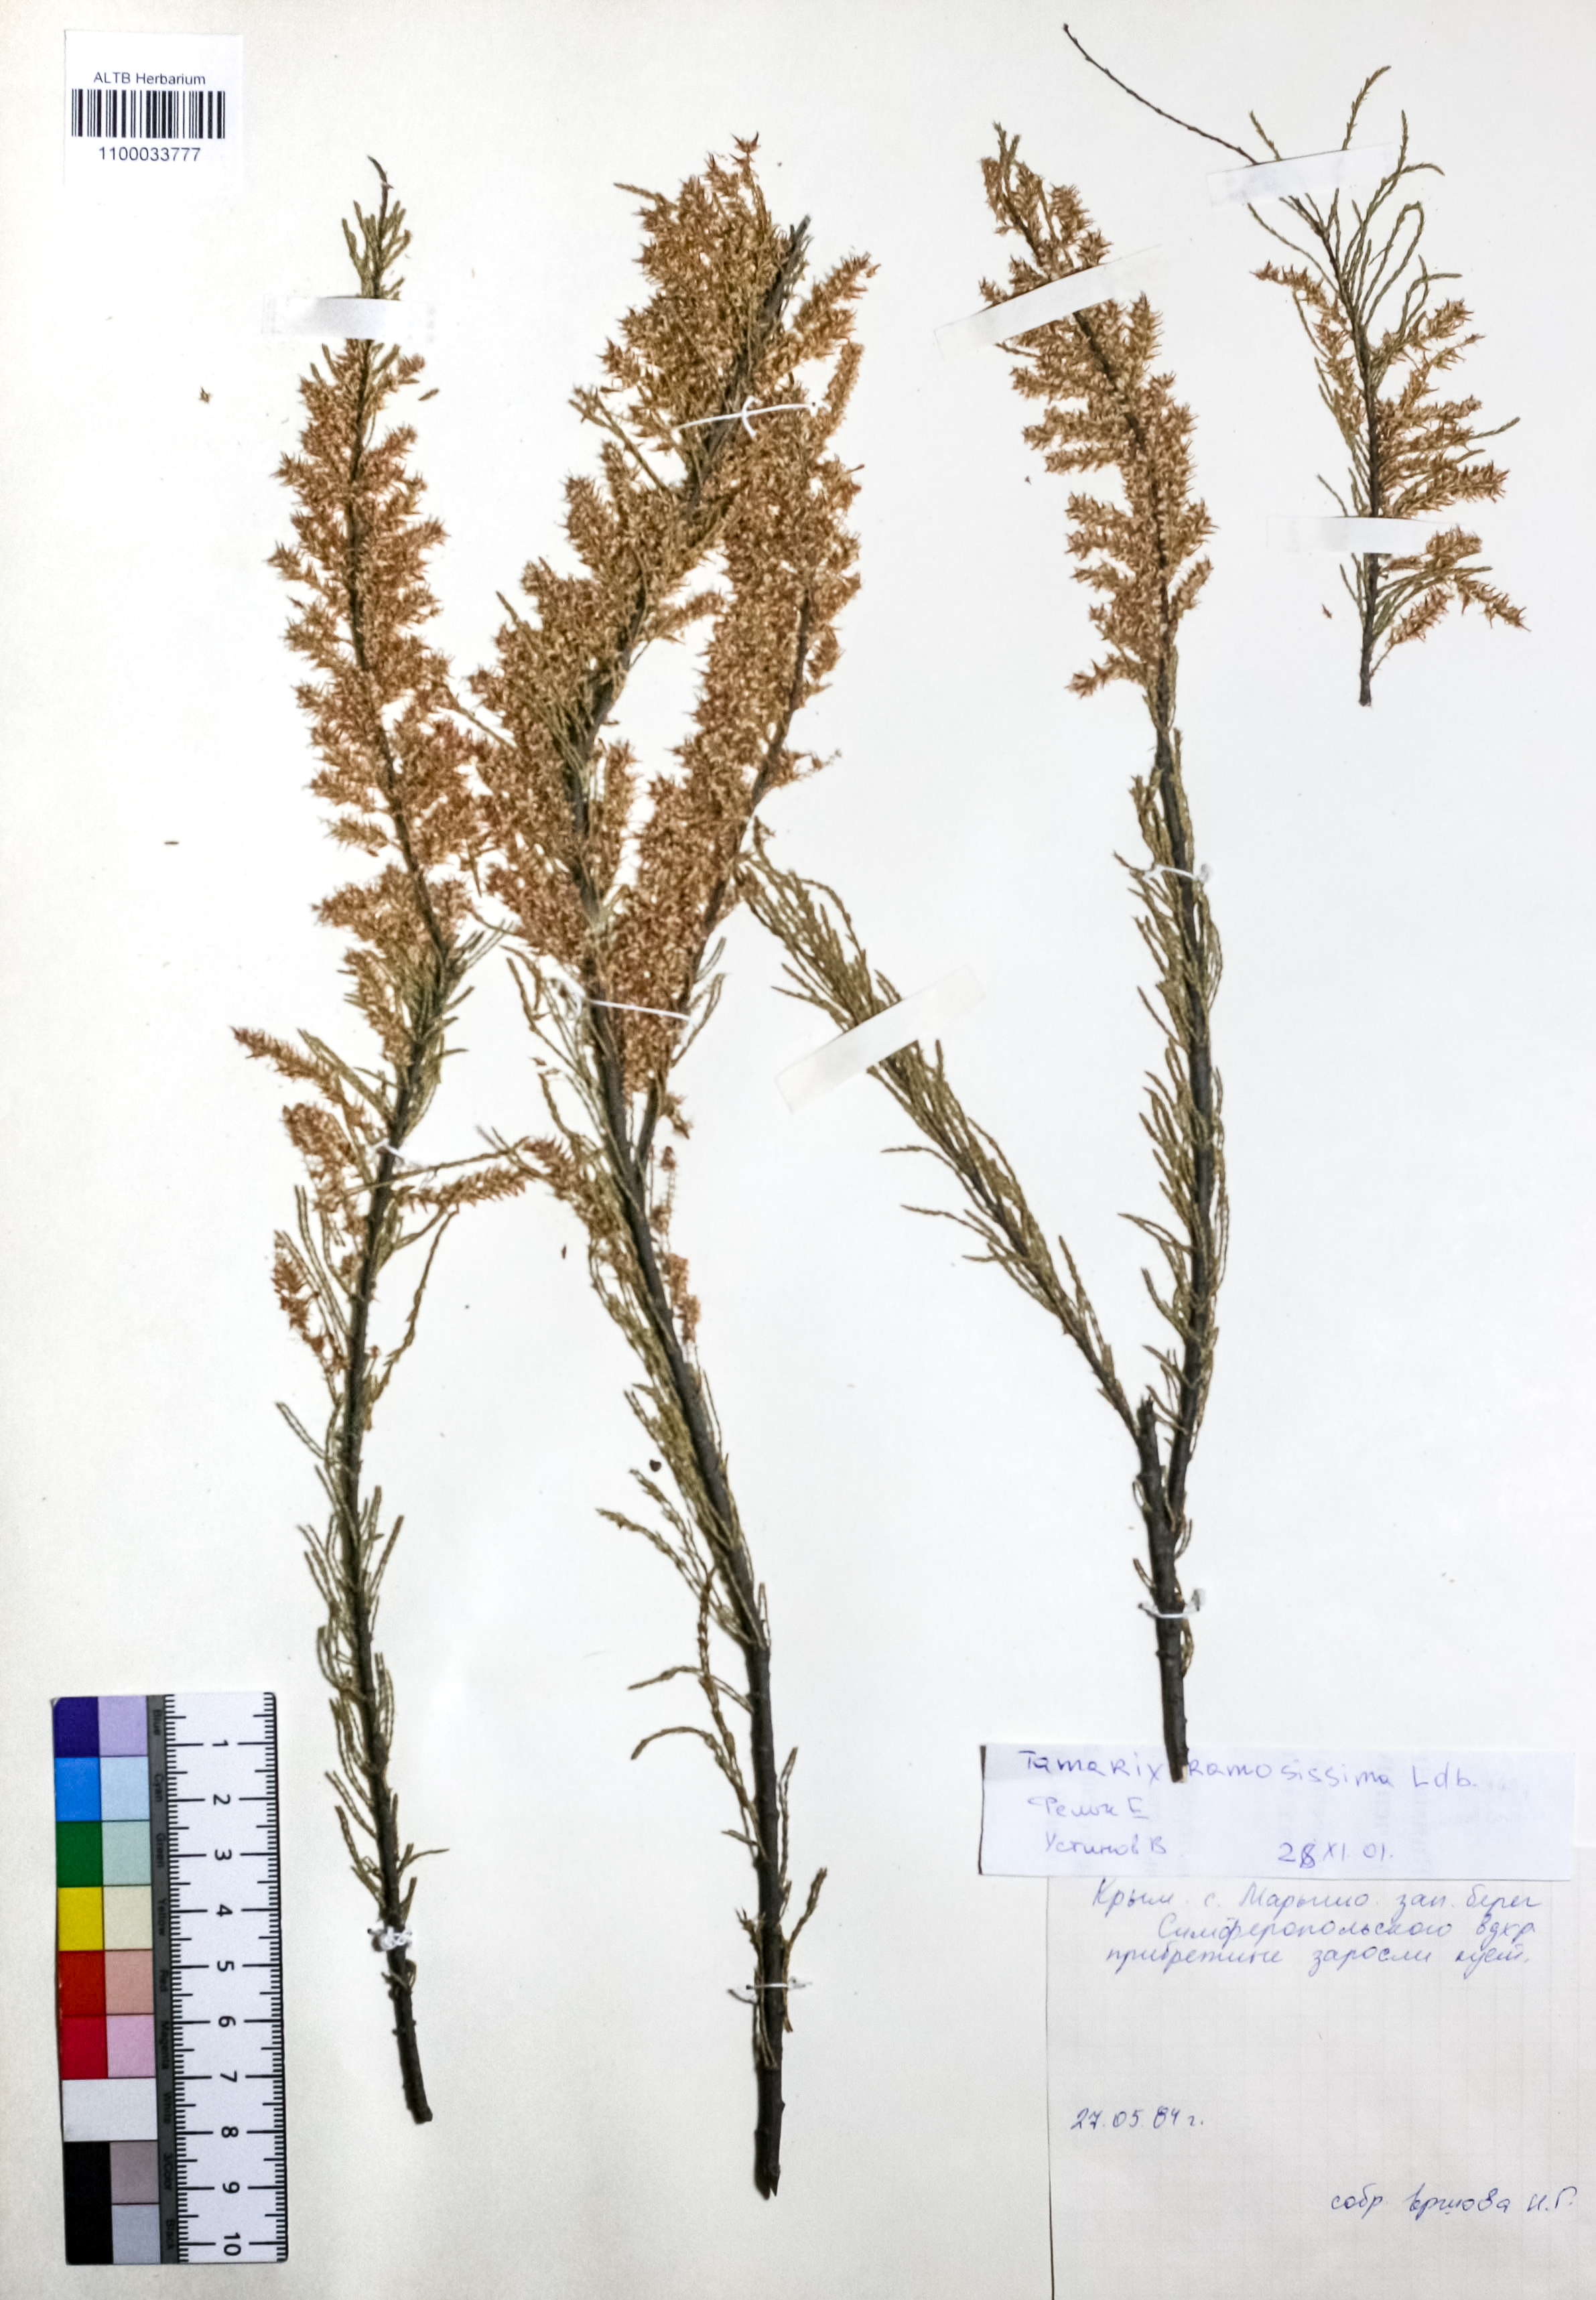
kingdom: Plantae
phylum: Tracheophyta
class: Magnoliopsida
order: Caryophyllales
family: Tamaricaceae
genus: Tamarix
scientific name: Tamarix ramosissima
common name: Pink tamarisk
